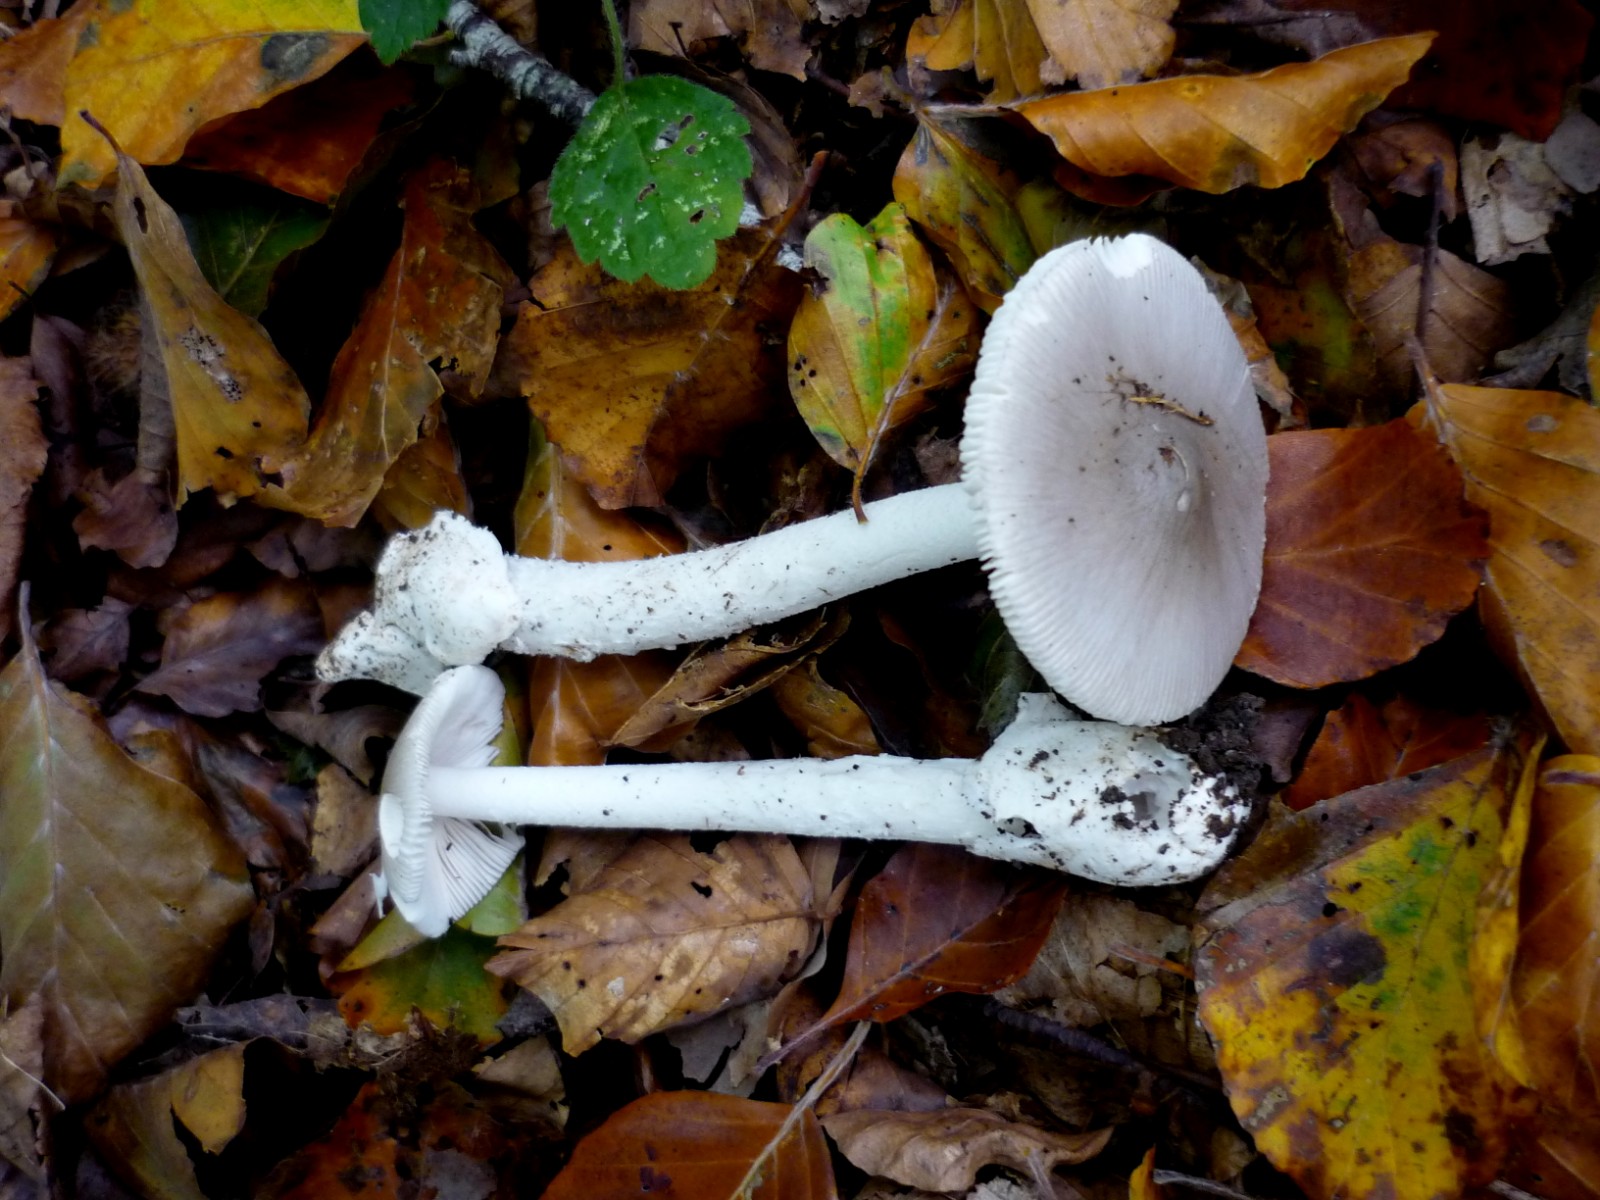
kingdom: Fungi
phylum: Basidiomycota
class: Agaricomycetes
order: Agaricales
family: Amanitaceae
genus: Amanita
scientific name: Amanita vaginata
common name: grå kam-fluesvamp
